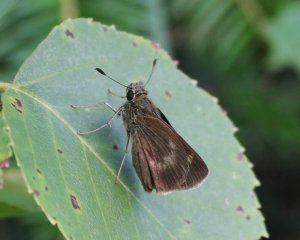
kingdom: Animalia
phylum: Arthropoda
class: Insecta
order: Lepidoptera
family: Hesperiidae
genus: Polites
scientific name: Polites egeremet
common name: Northern Broken-Dash
